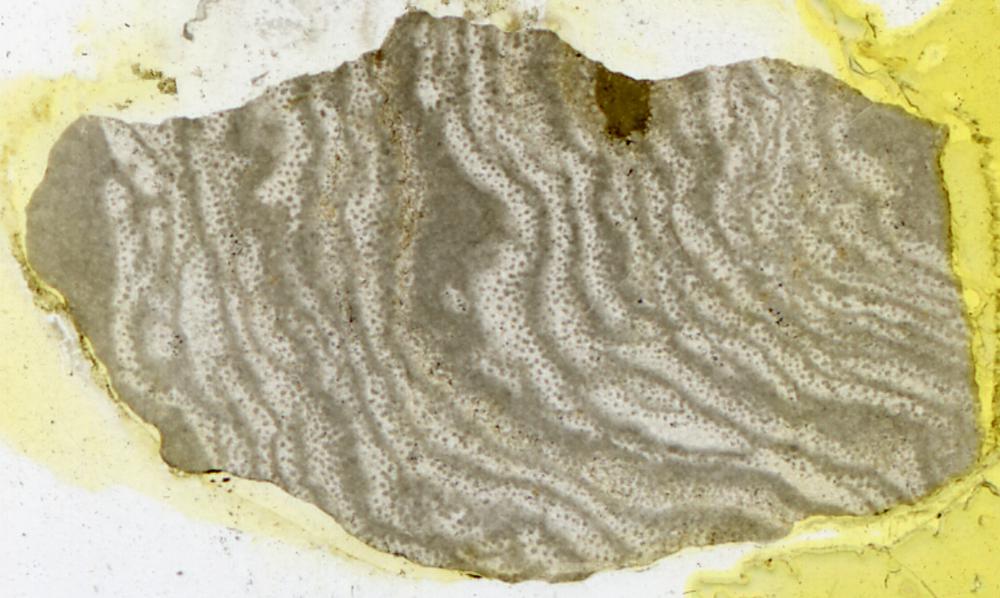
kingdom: Animalia
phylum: Porifera
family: Rosenellidae
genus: Rosenella
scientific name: Rosenella dentata
